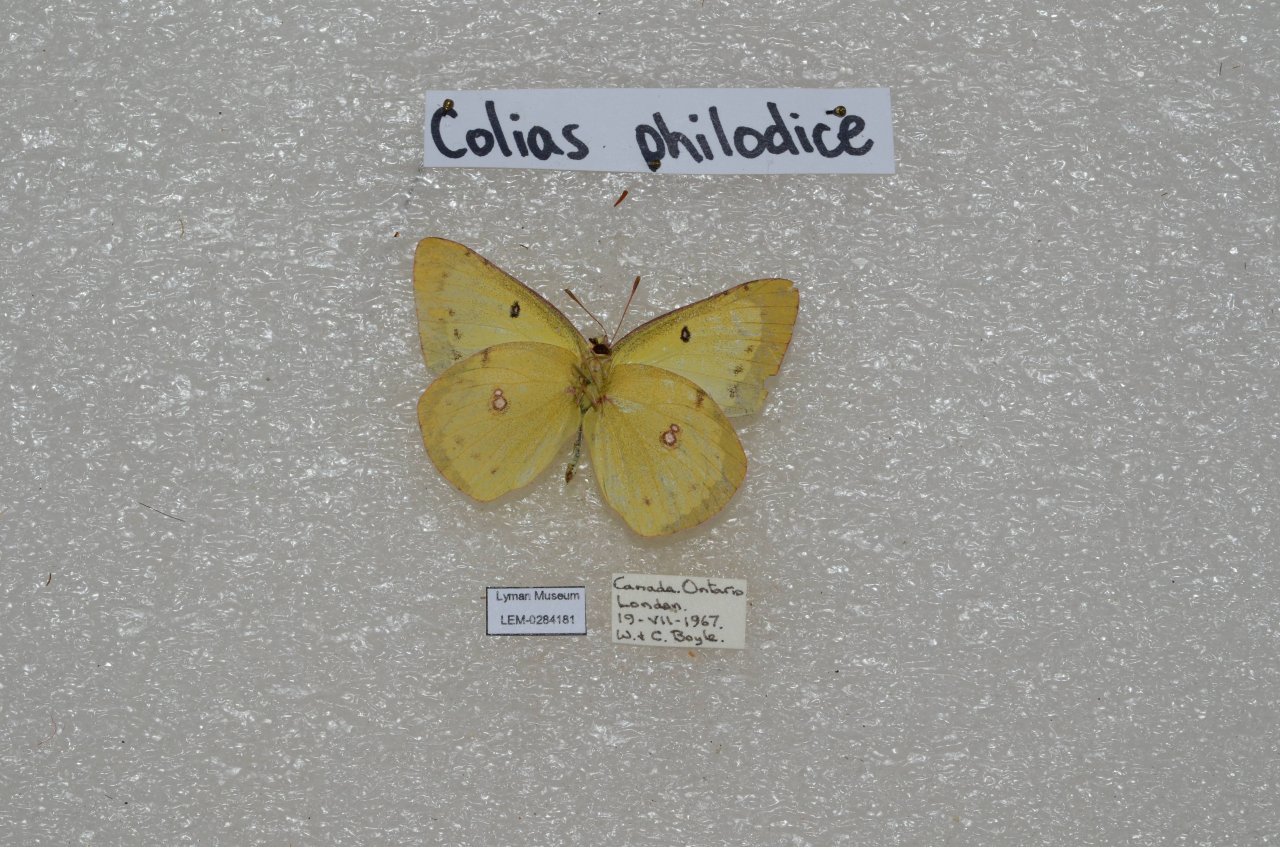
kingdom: Animalia
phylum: Arthropoda
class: Insecta
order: Lepidoptera
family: Pieridae
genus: Colias
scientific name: Colias philodice
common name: Clouded Sulphur
